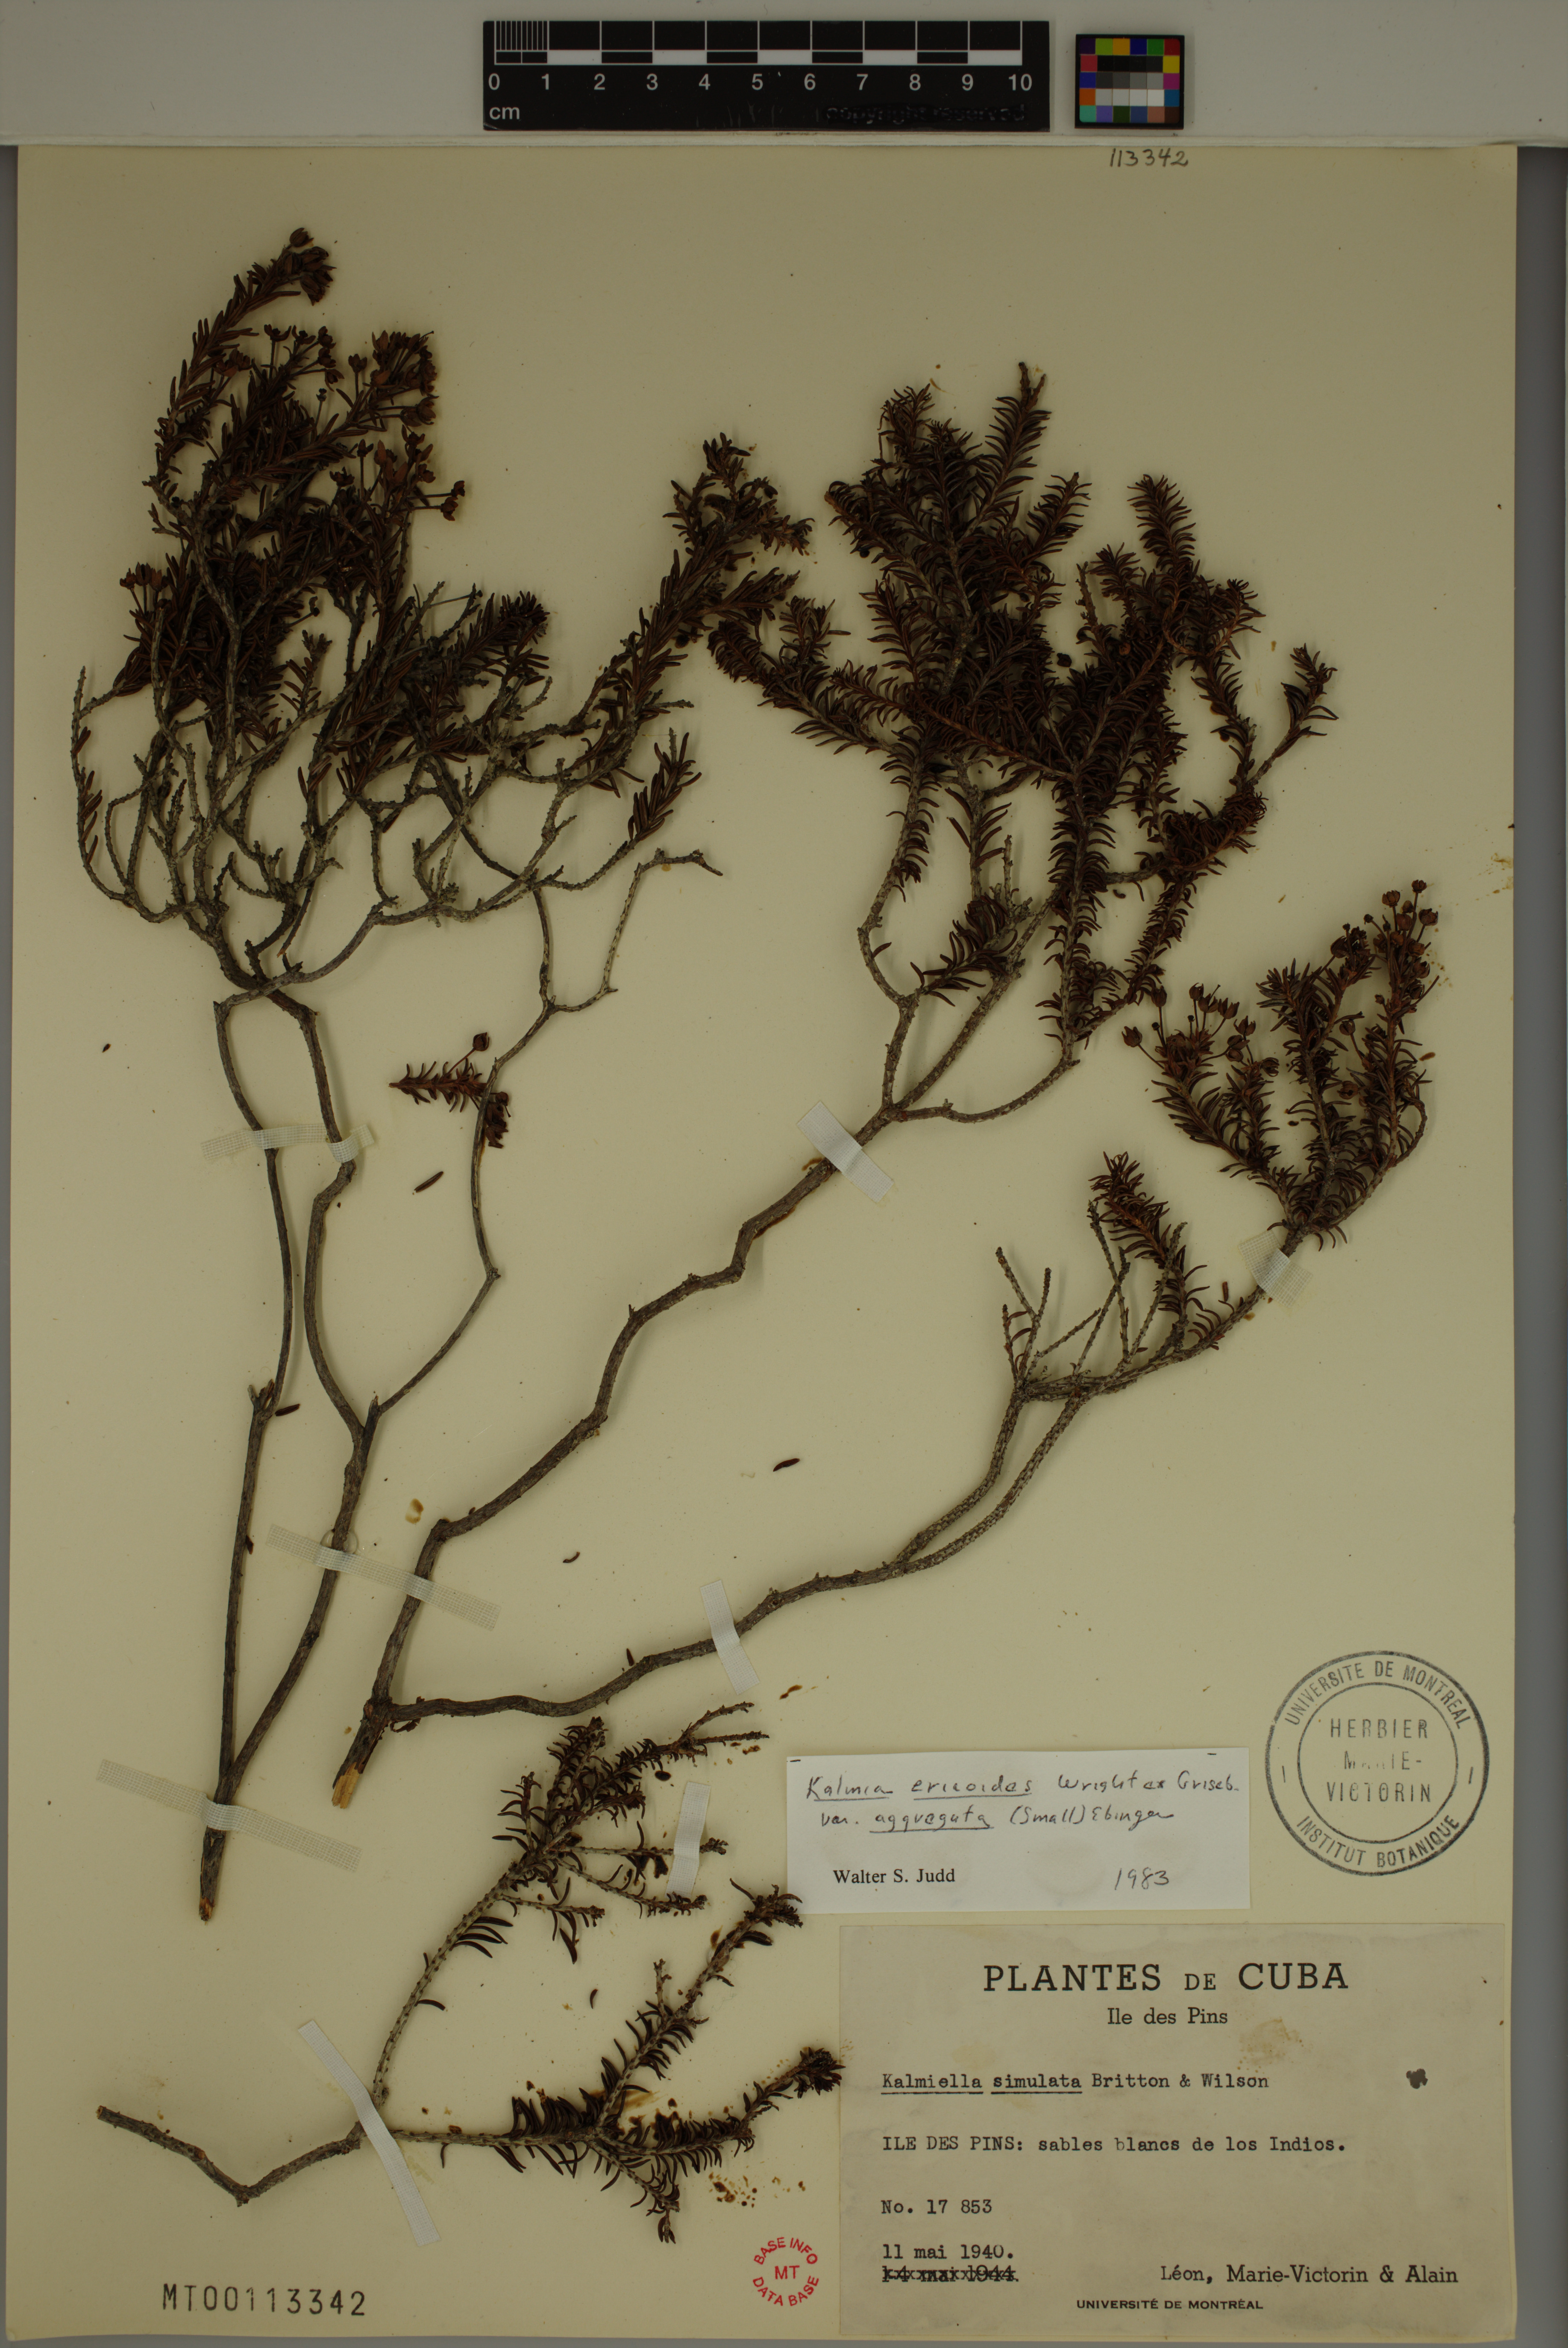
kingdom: Plantae
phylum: Tracheophyta
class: Magnoliopsida
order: Ericales
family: Ericaceae
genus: Kalmia
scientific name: Kalmia ericoides
